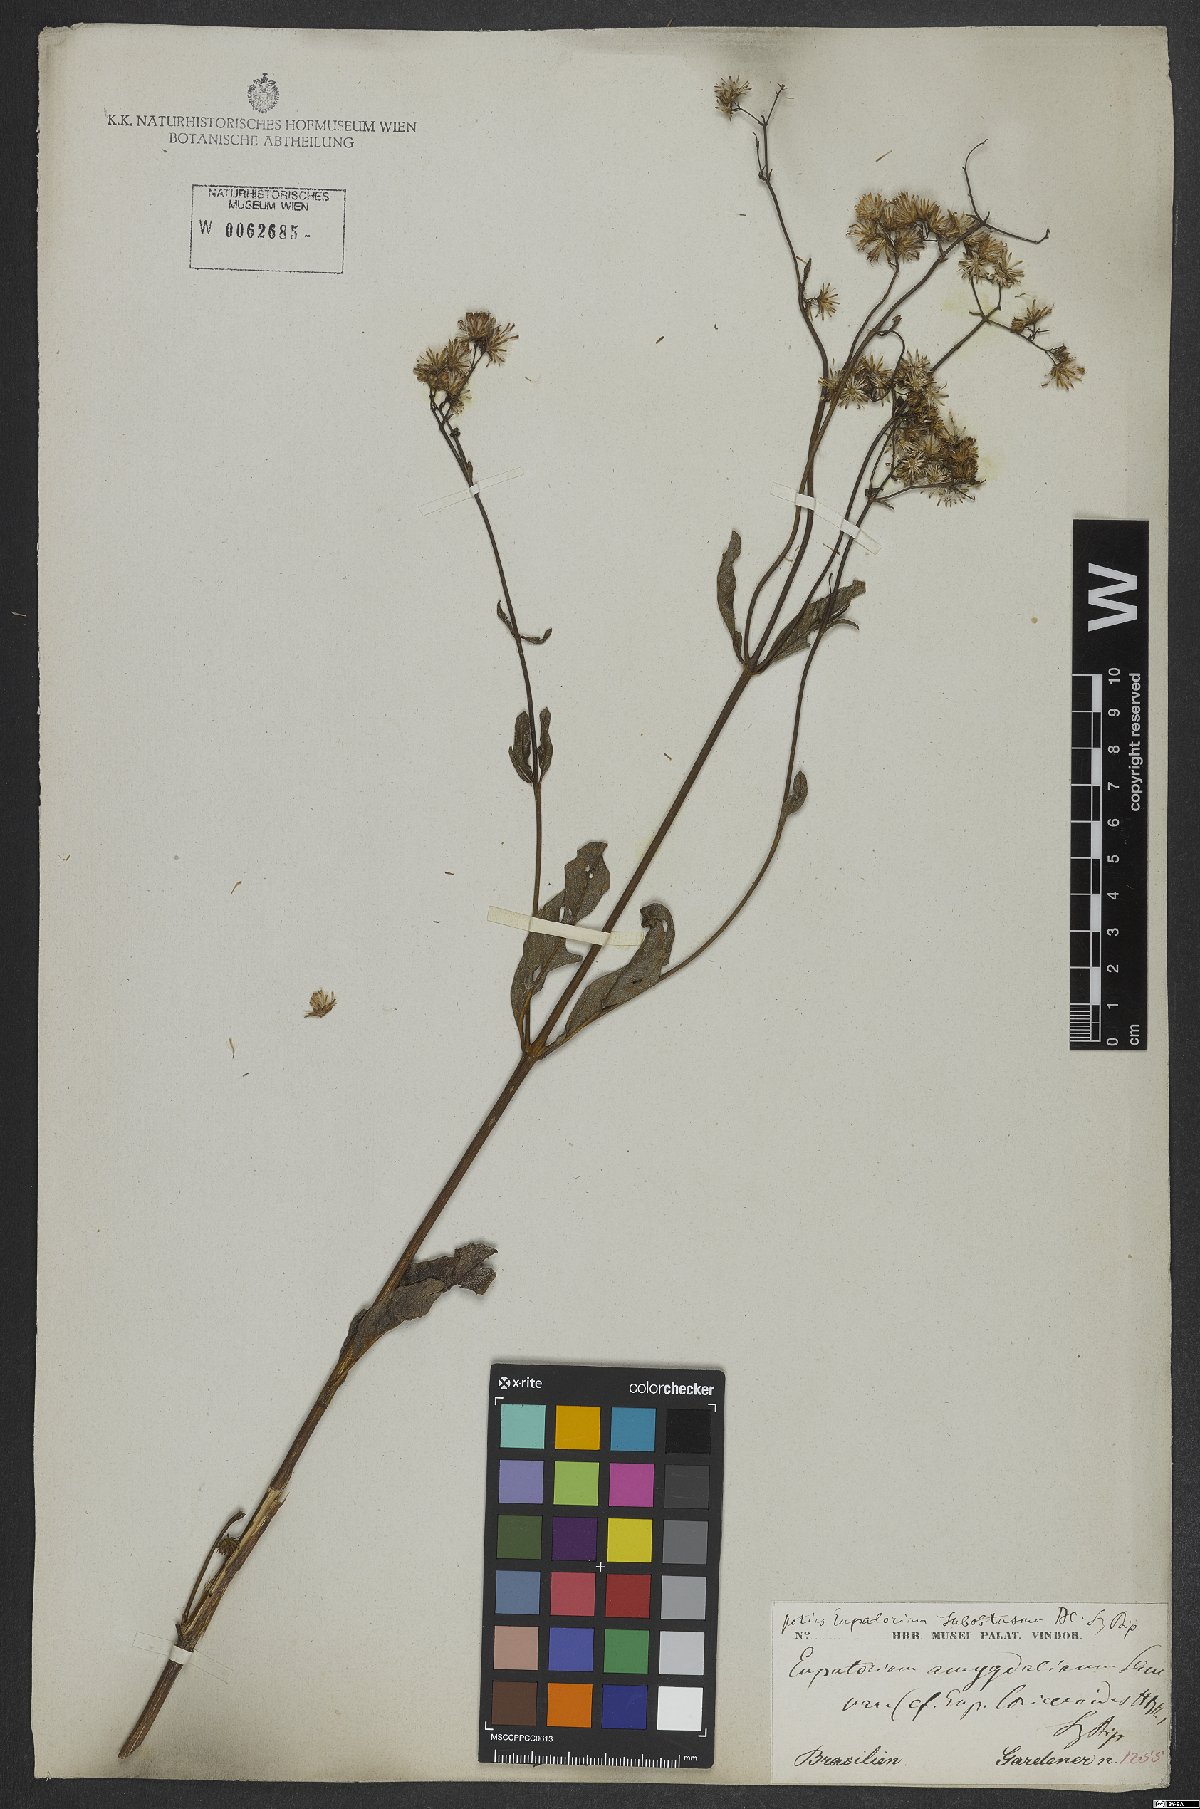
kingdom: Plantae
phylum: Tracheophyta
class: Magnoliopsida
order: Asterales
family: Asteraceae
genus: Ayapana
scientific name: Ayapana amygdalina
